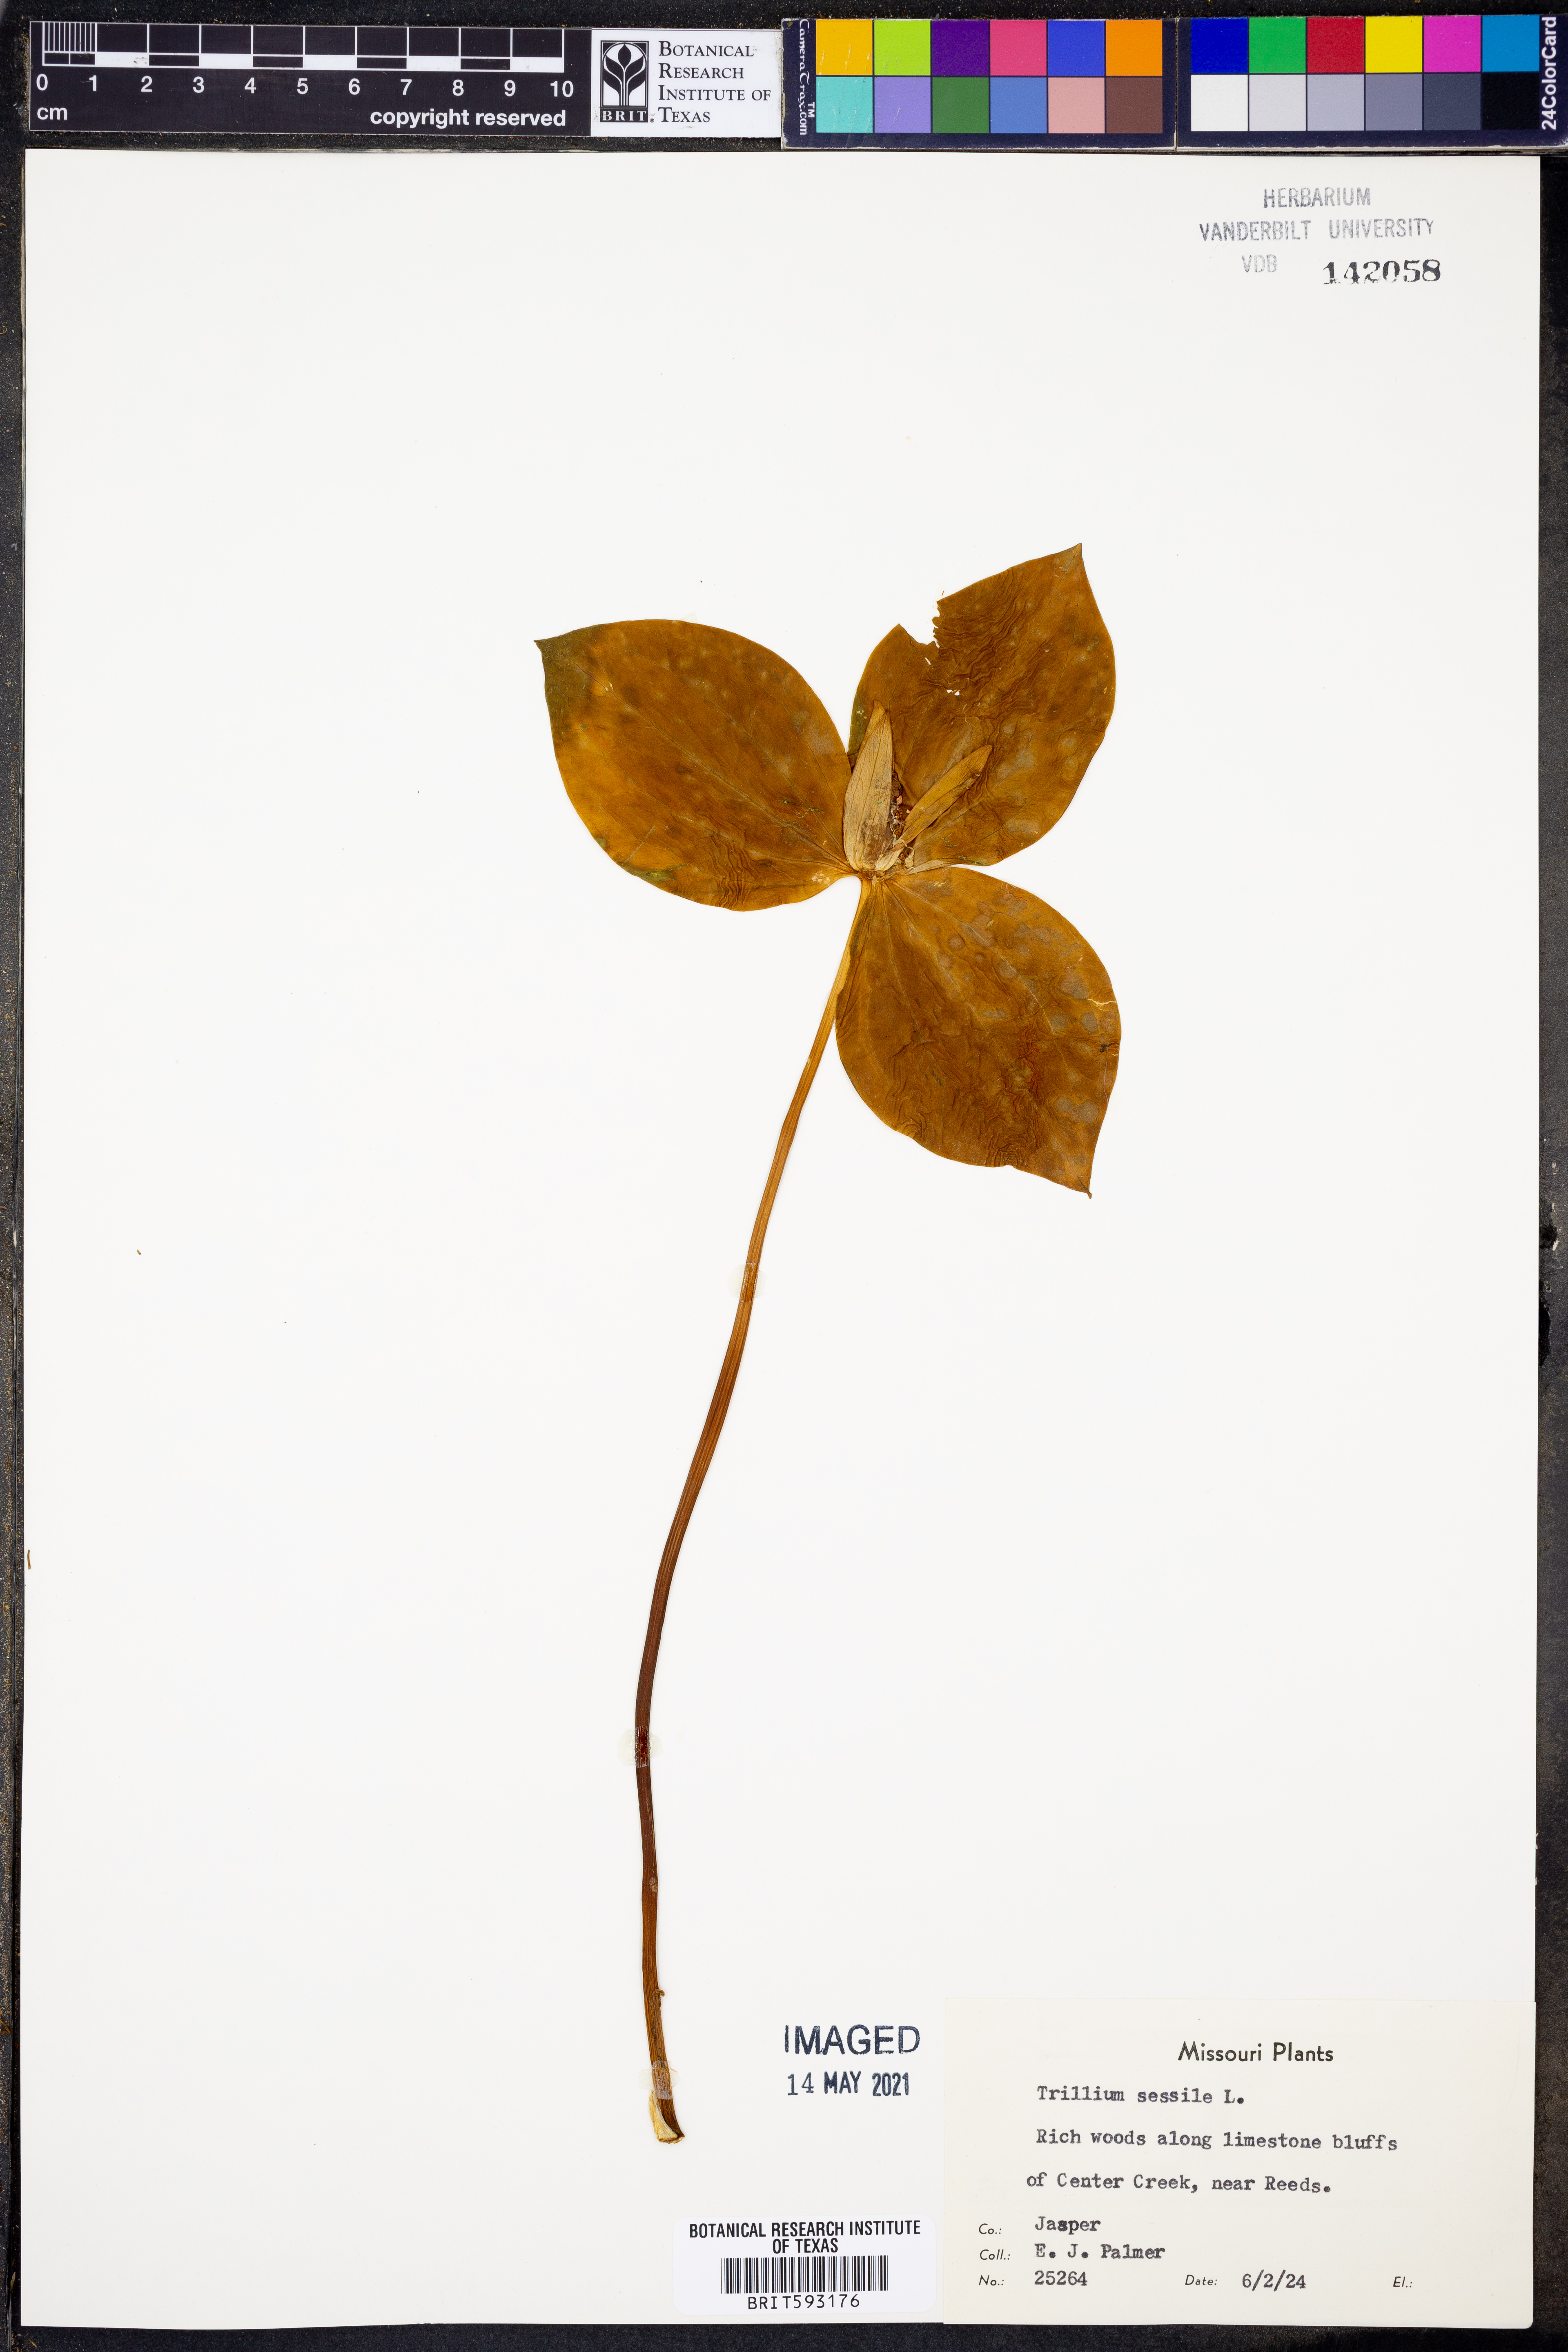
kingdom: Plantae
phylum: Tracheophyta
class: Liliopsida
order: Liliales
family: Melanthiaceae
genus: Trillium
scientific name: Trillium sessile
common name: Sessile trillium
